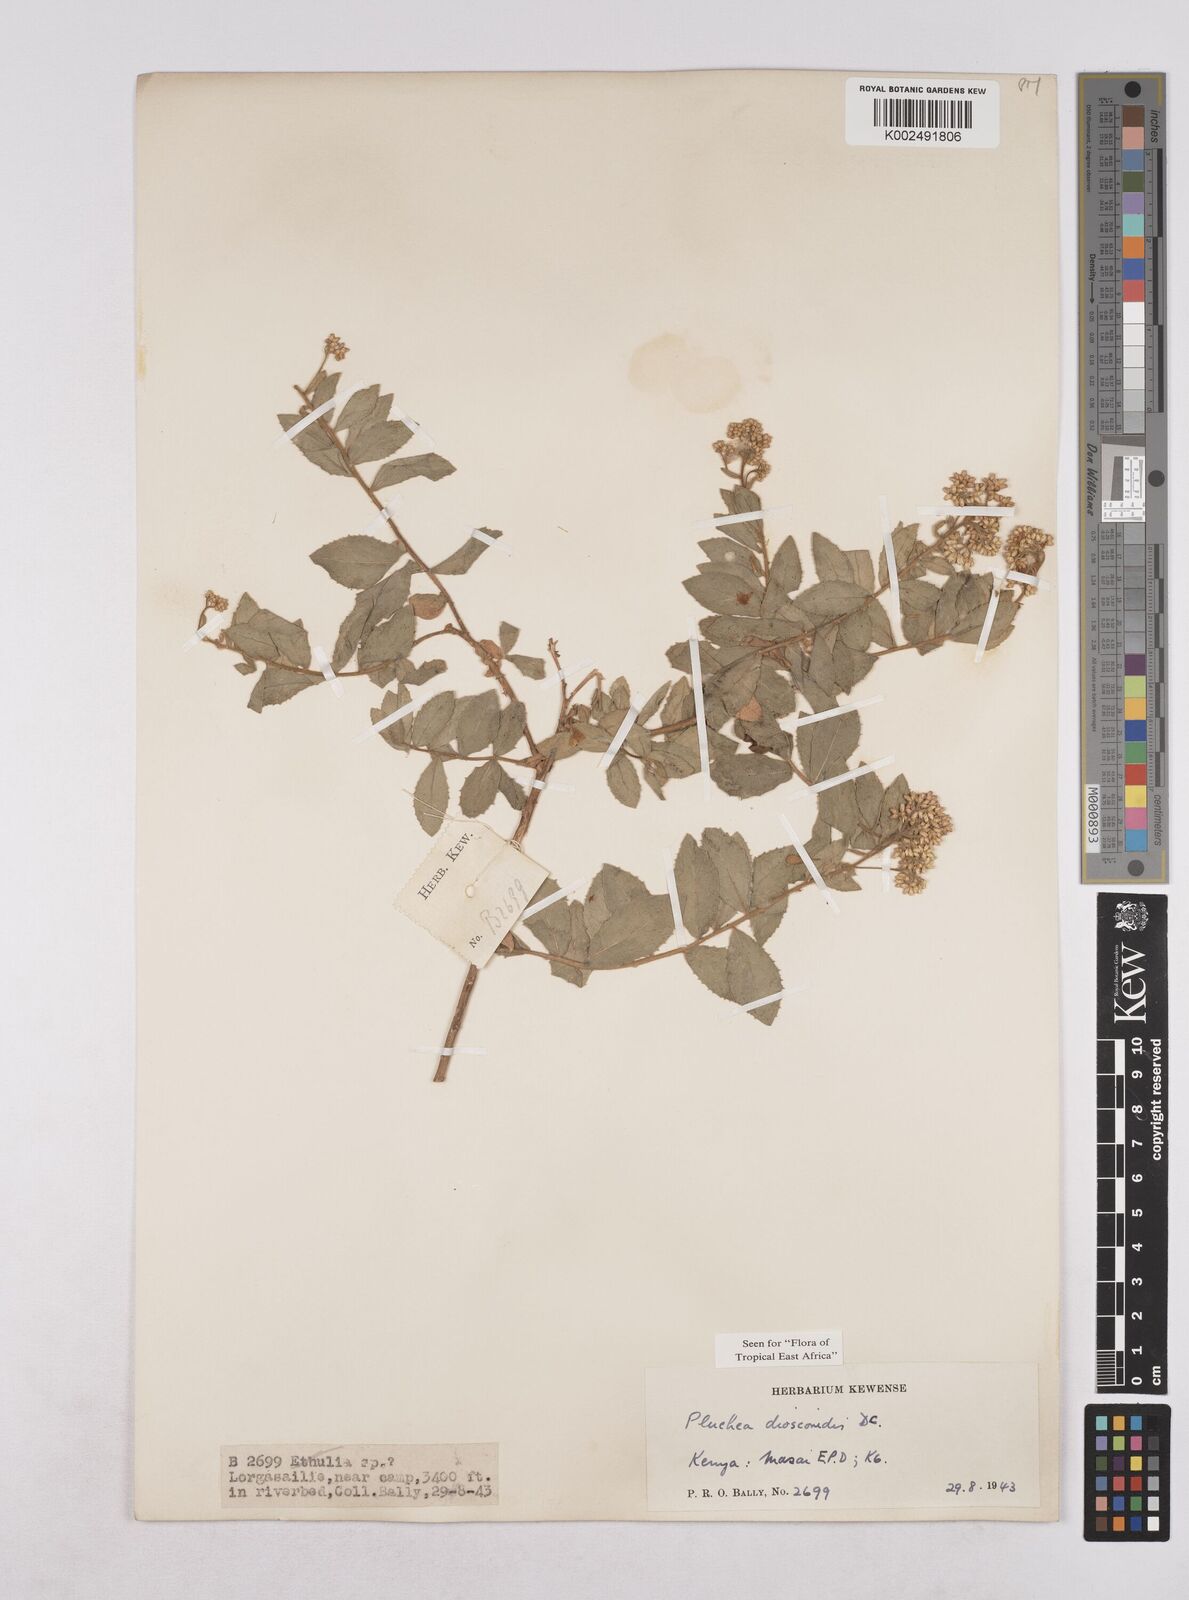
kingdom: Plantae
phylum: Tracheophyta
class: Magnoliopsida
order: Asterales
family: Asteraceae
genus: Pluchea
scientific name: Pluchea dioscoridis
